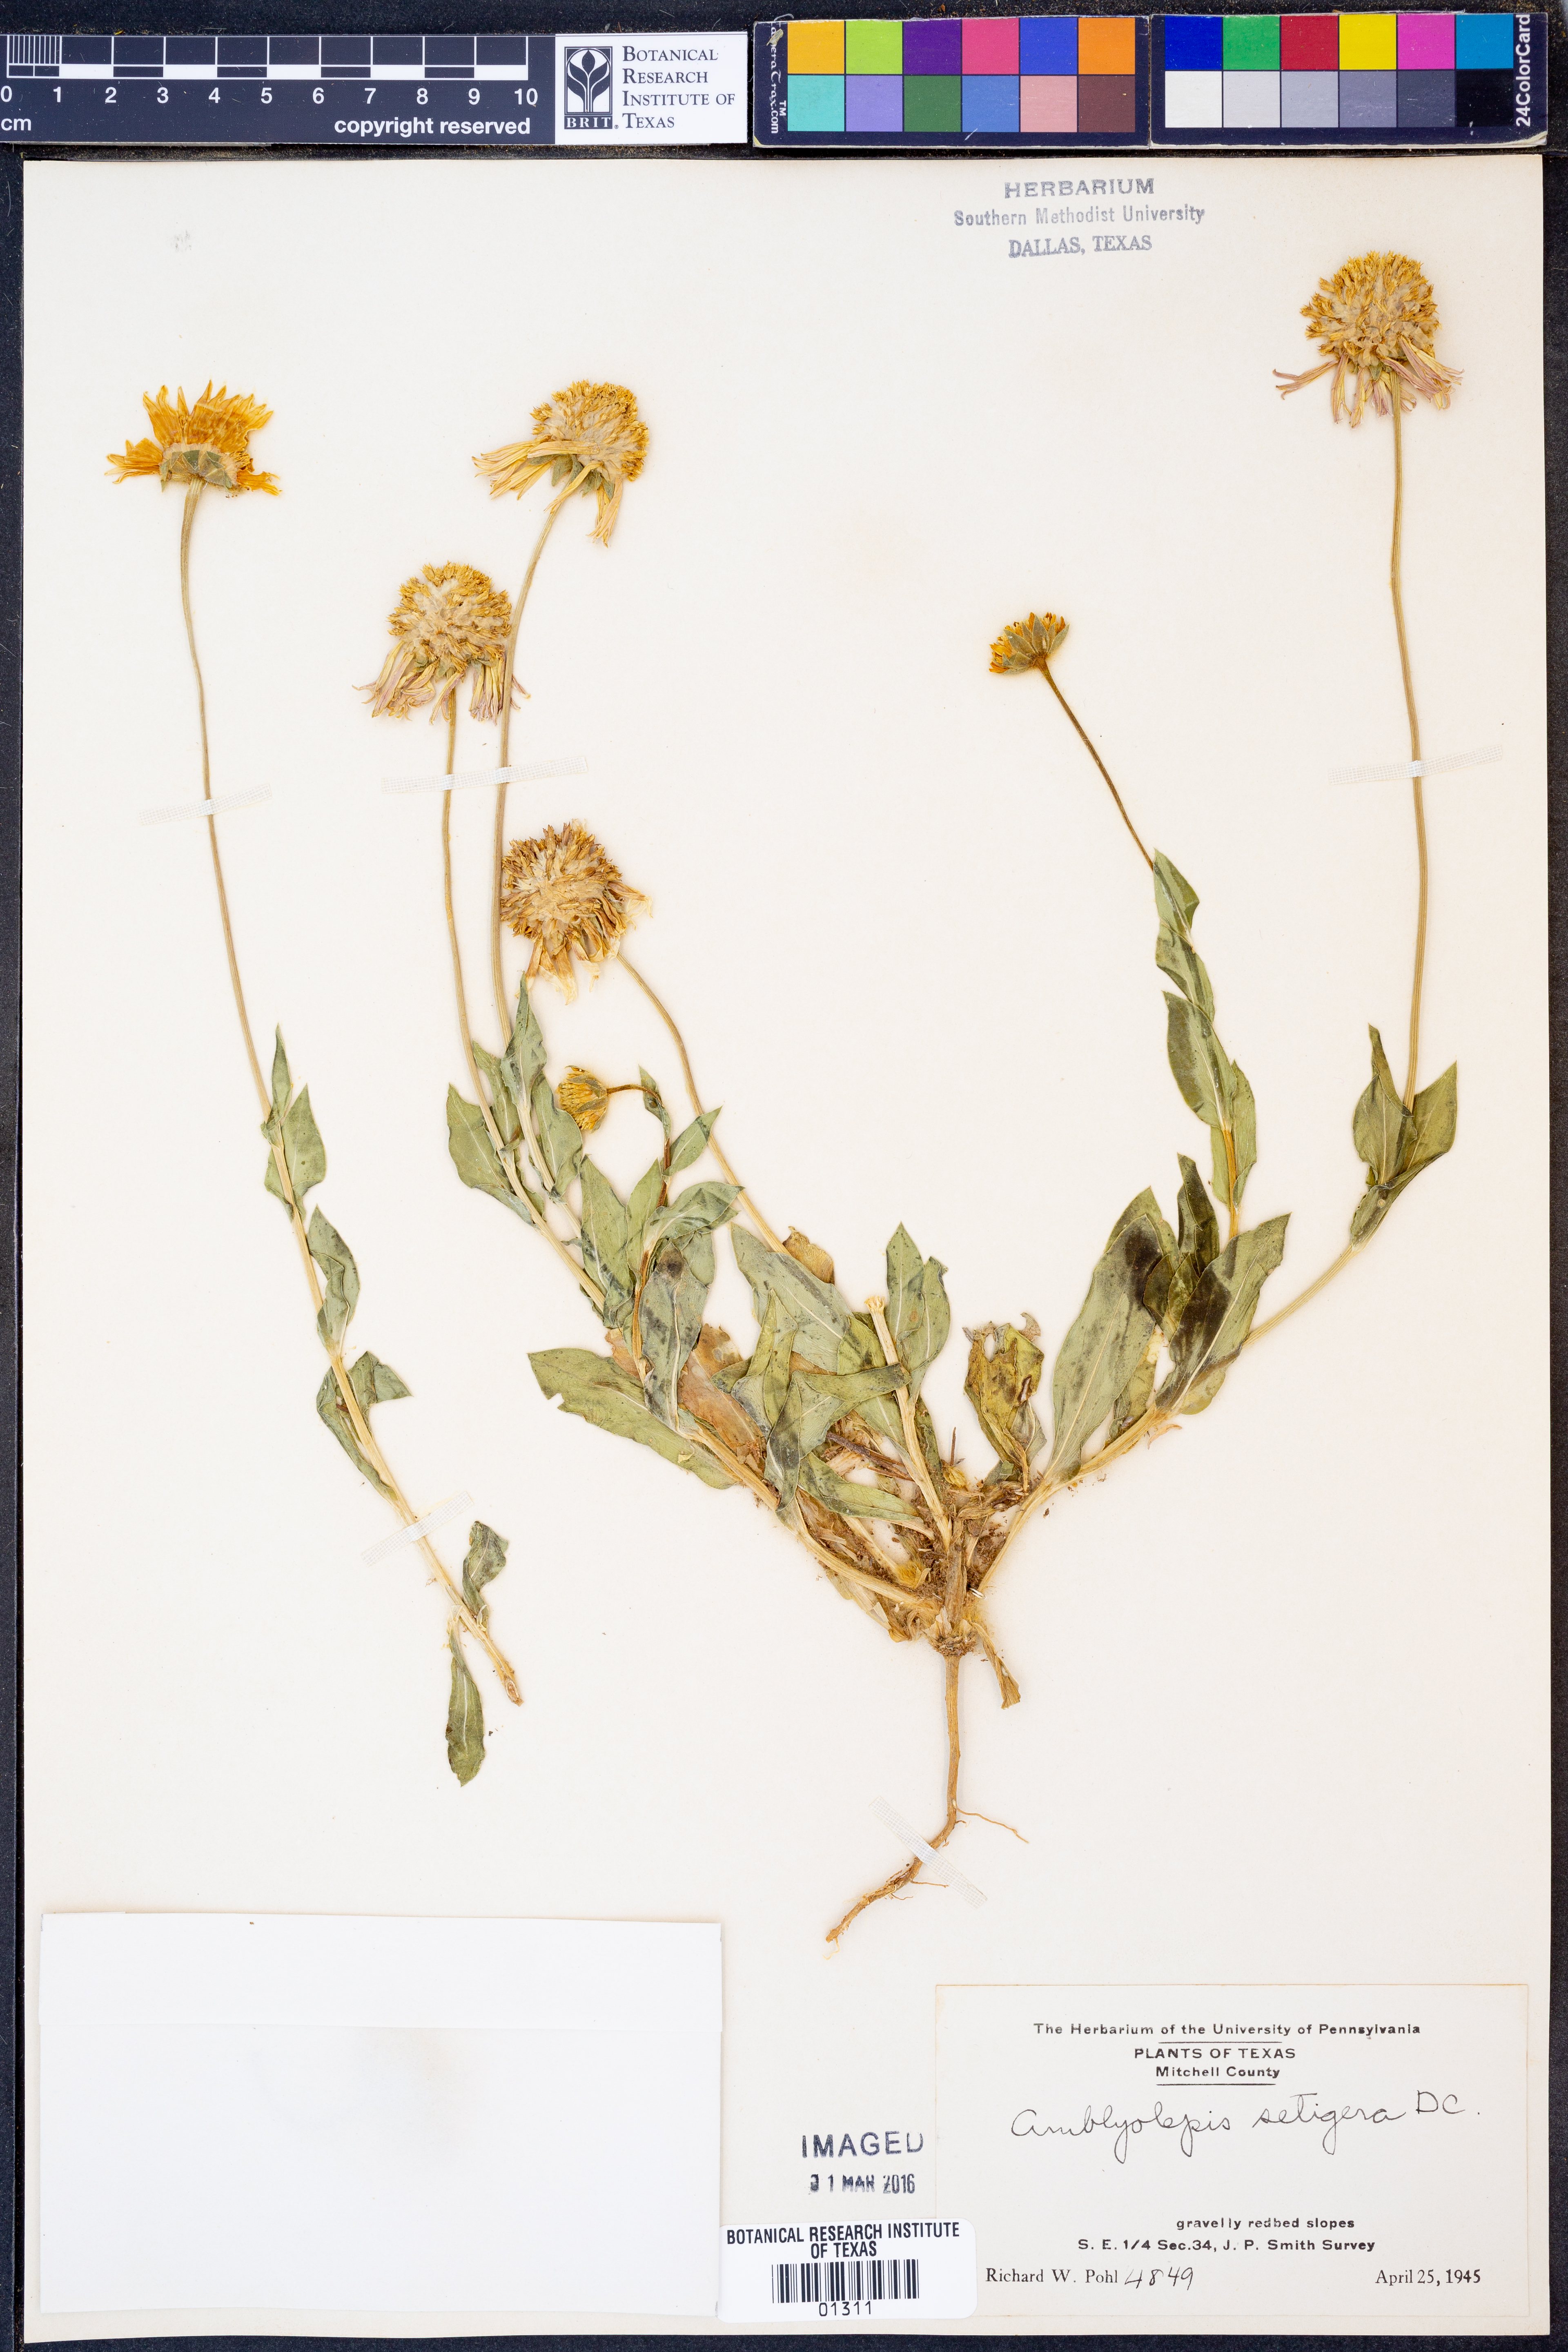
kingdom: Plantae
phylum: Tracheophyta
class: Magnoliopsida
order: Asterales
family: Asteraceae
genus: Amblyolepis
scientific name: Amblyolepis setigera
